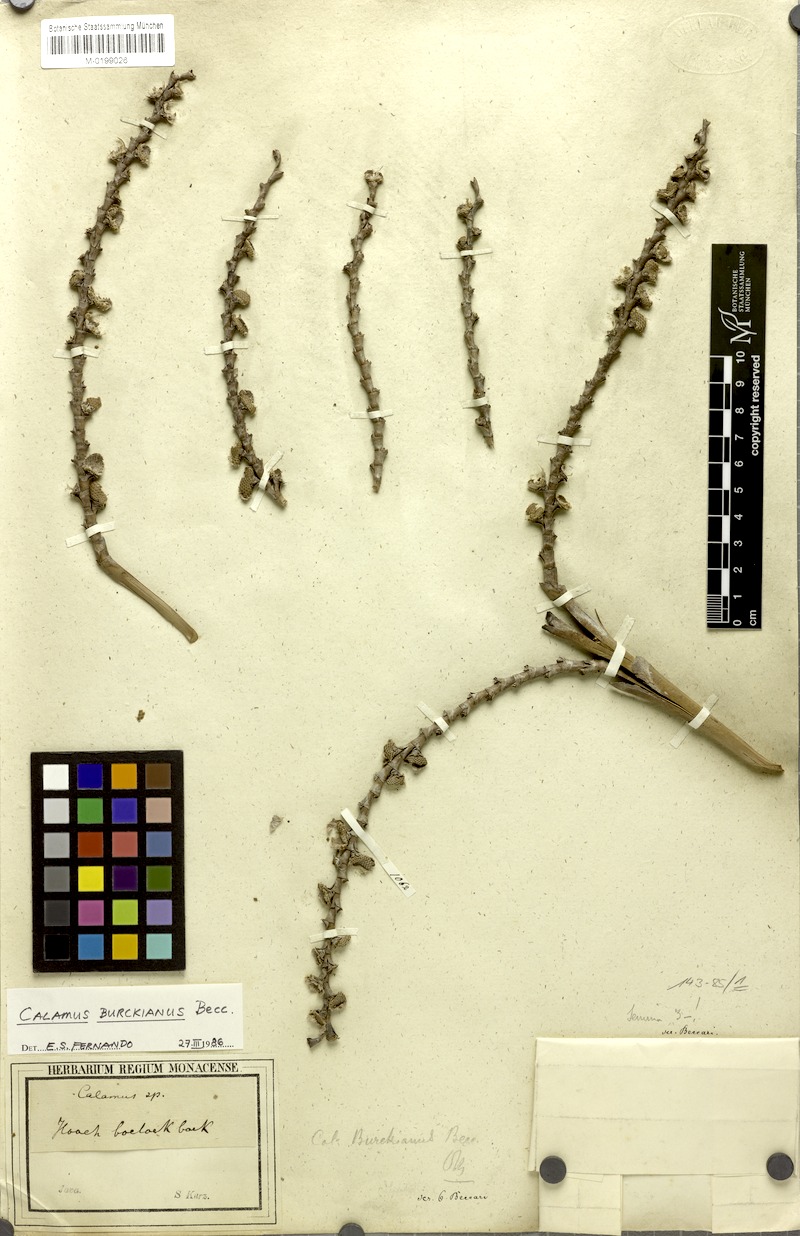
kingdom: Plantae
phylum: Tracheophyta
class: Liliopsida
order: Arecales
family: Arecaceae
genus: Calamus
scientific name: Calamus burckianus
